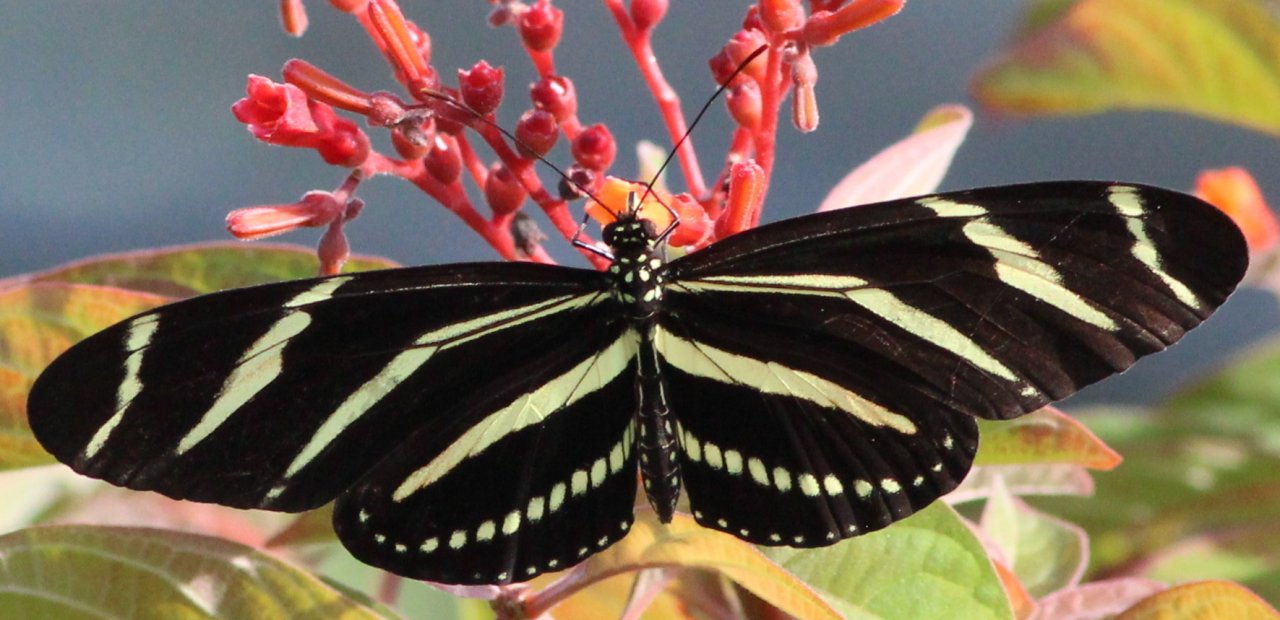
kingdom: Animalia
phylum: Arthropoda
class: Insecta
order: Lepidoptera
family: Nymphalidae
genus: Heliconius
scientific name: Heliconius charithonia
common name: Zebra Longwing
